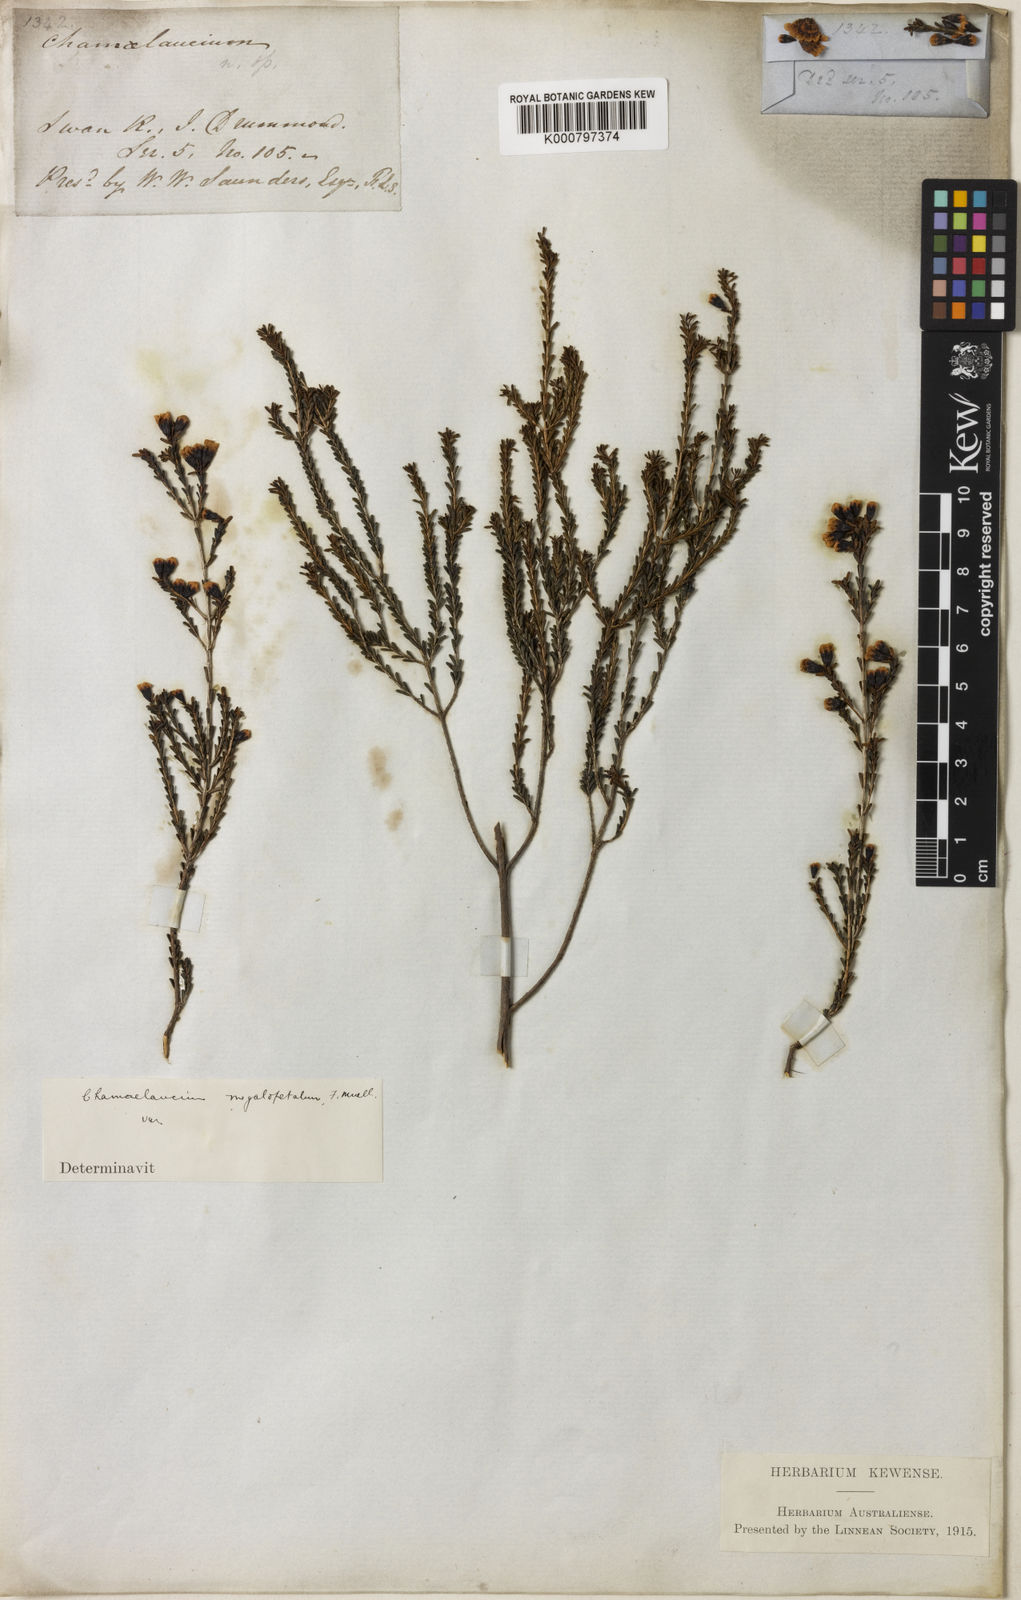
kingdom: Plantae
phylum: Tracheophyta
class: Magnoliopsida
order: Myrtales
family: Myrtaceae
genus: Chamelaucium
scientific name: Chamelaucium
